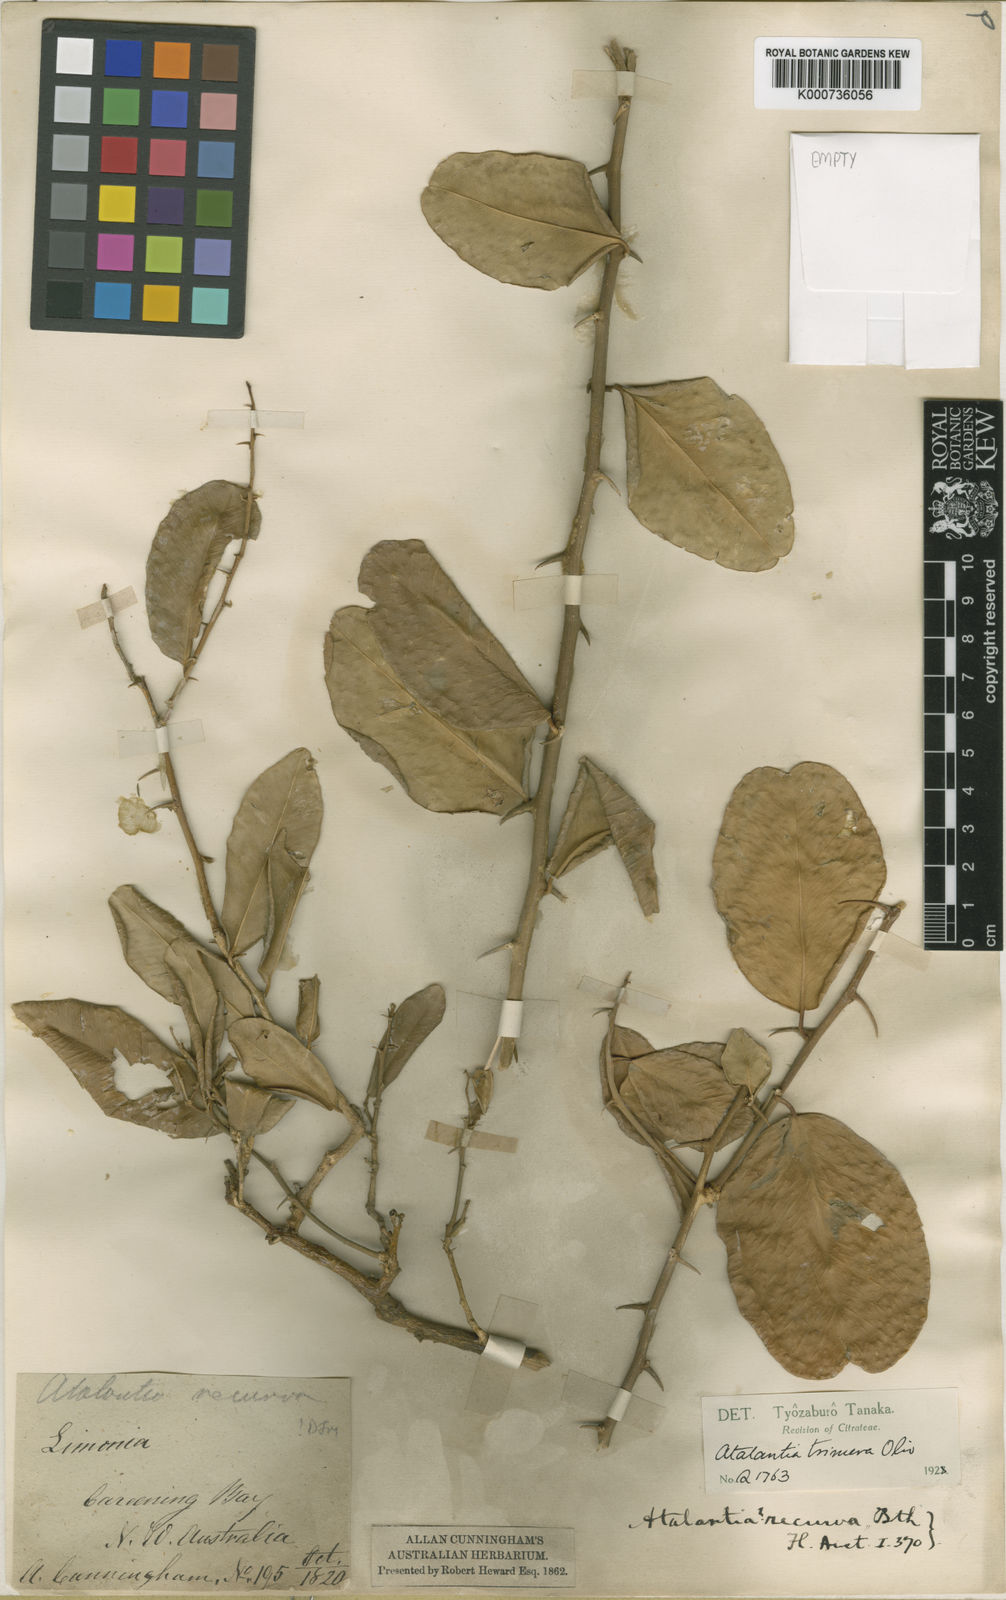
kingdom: Plantae
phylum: Tracheophyta
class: Magnoliopsida
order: Sapindales
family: Rutaceae
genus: Paramignya
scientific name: Paramignya
